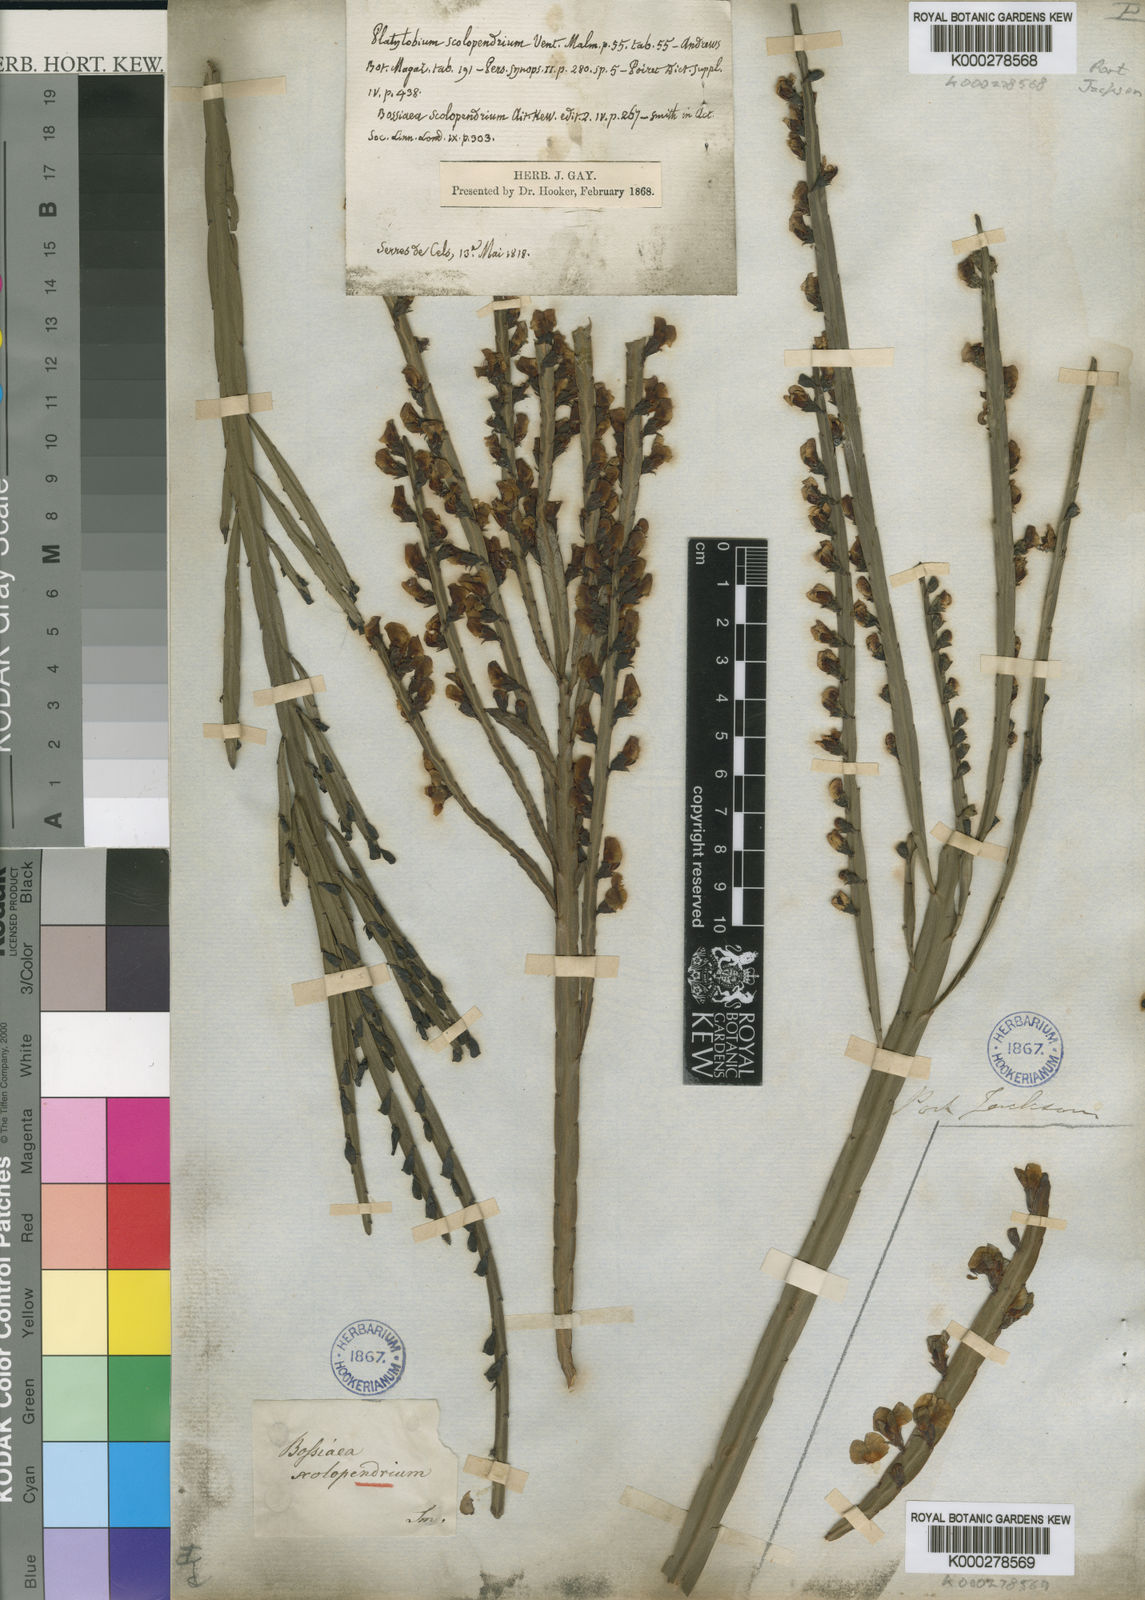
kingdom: Plantae
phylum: Tracheophyta
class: Magnoliopsida
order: Fabales
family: Fabaceae
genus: Bossiaea
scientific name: Bossiaea scolopendria
